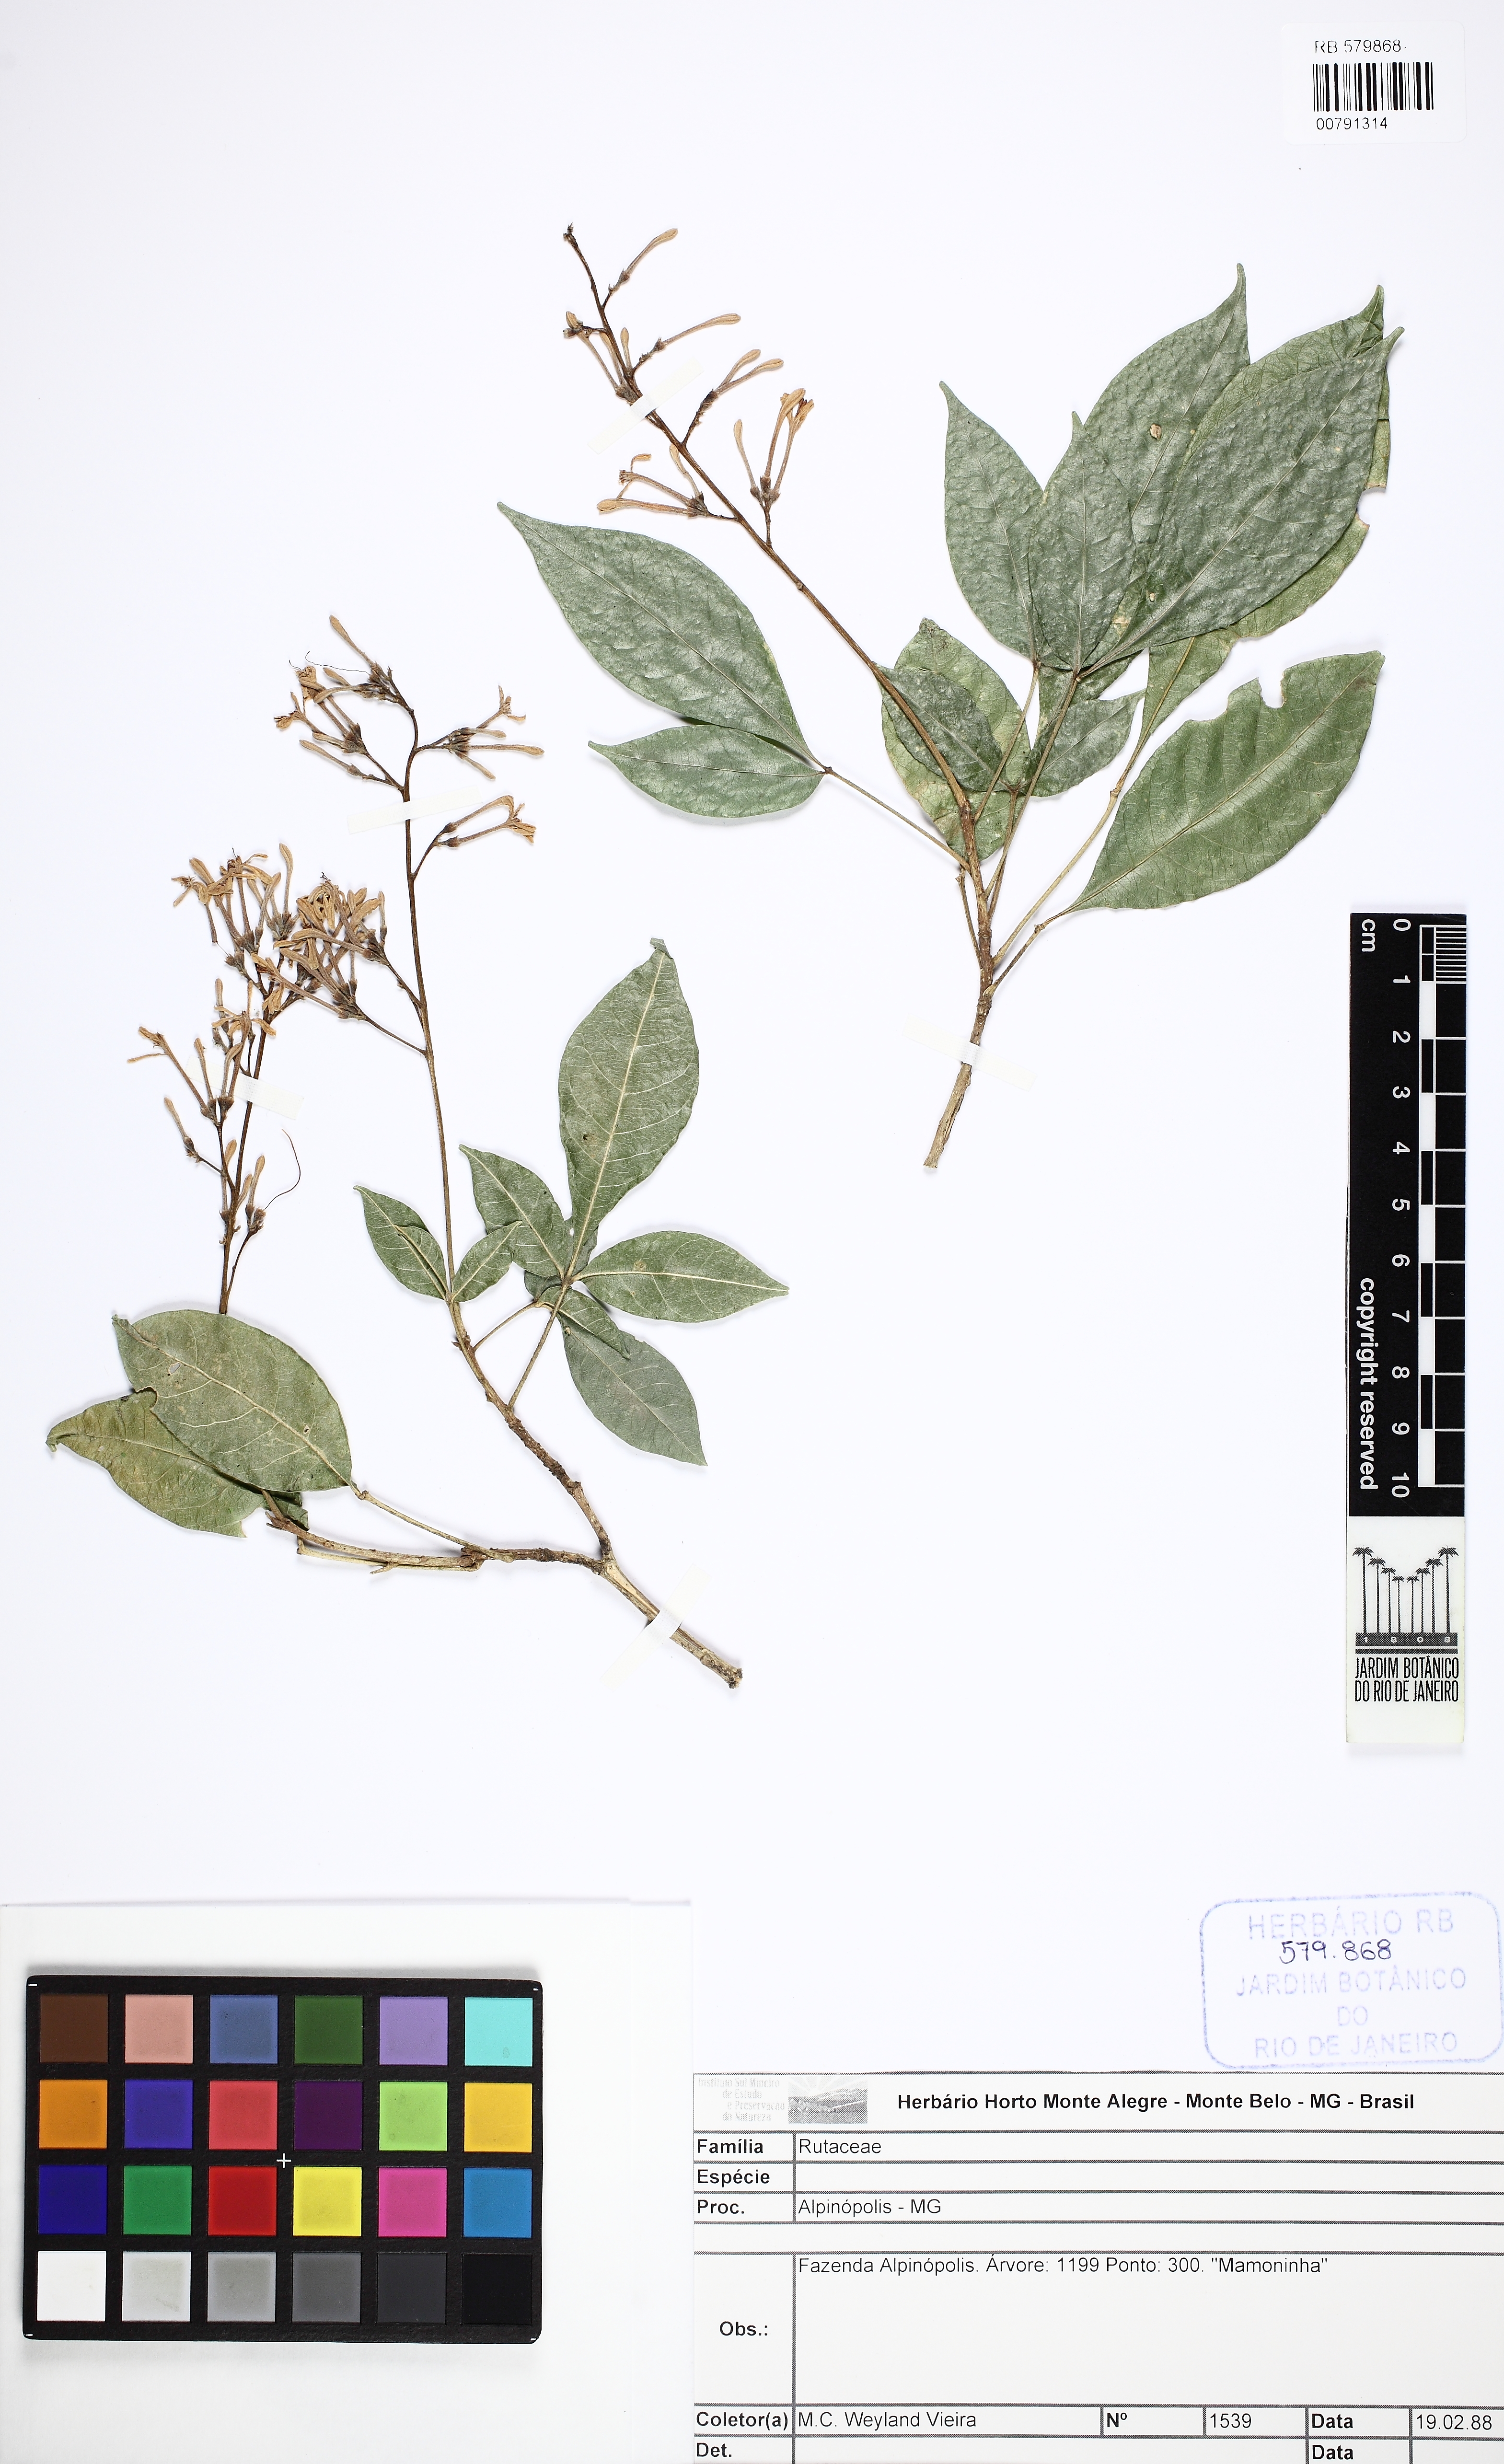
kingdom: Plantae
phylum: Tracheophyta
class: Magnoliopsida
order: Sapindales
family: Rutaceae
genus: Galipea
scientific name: Galipea jasminiflora
